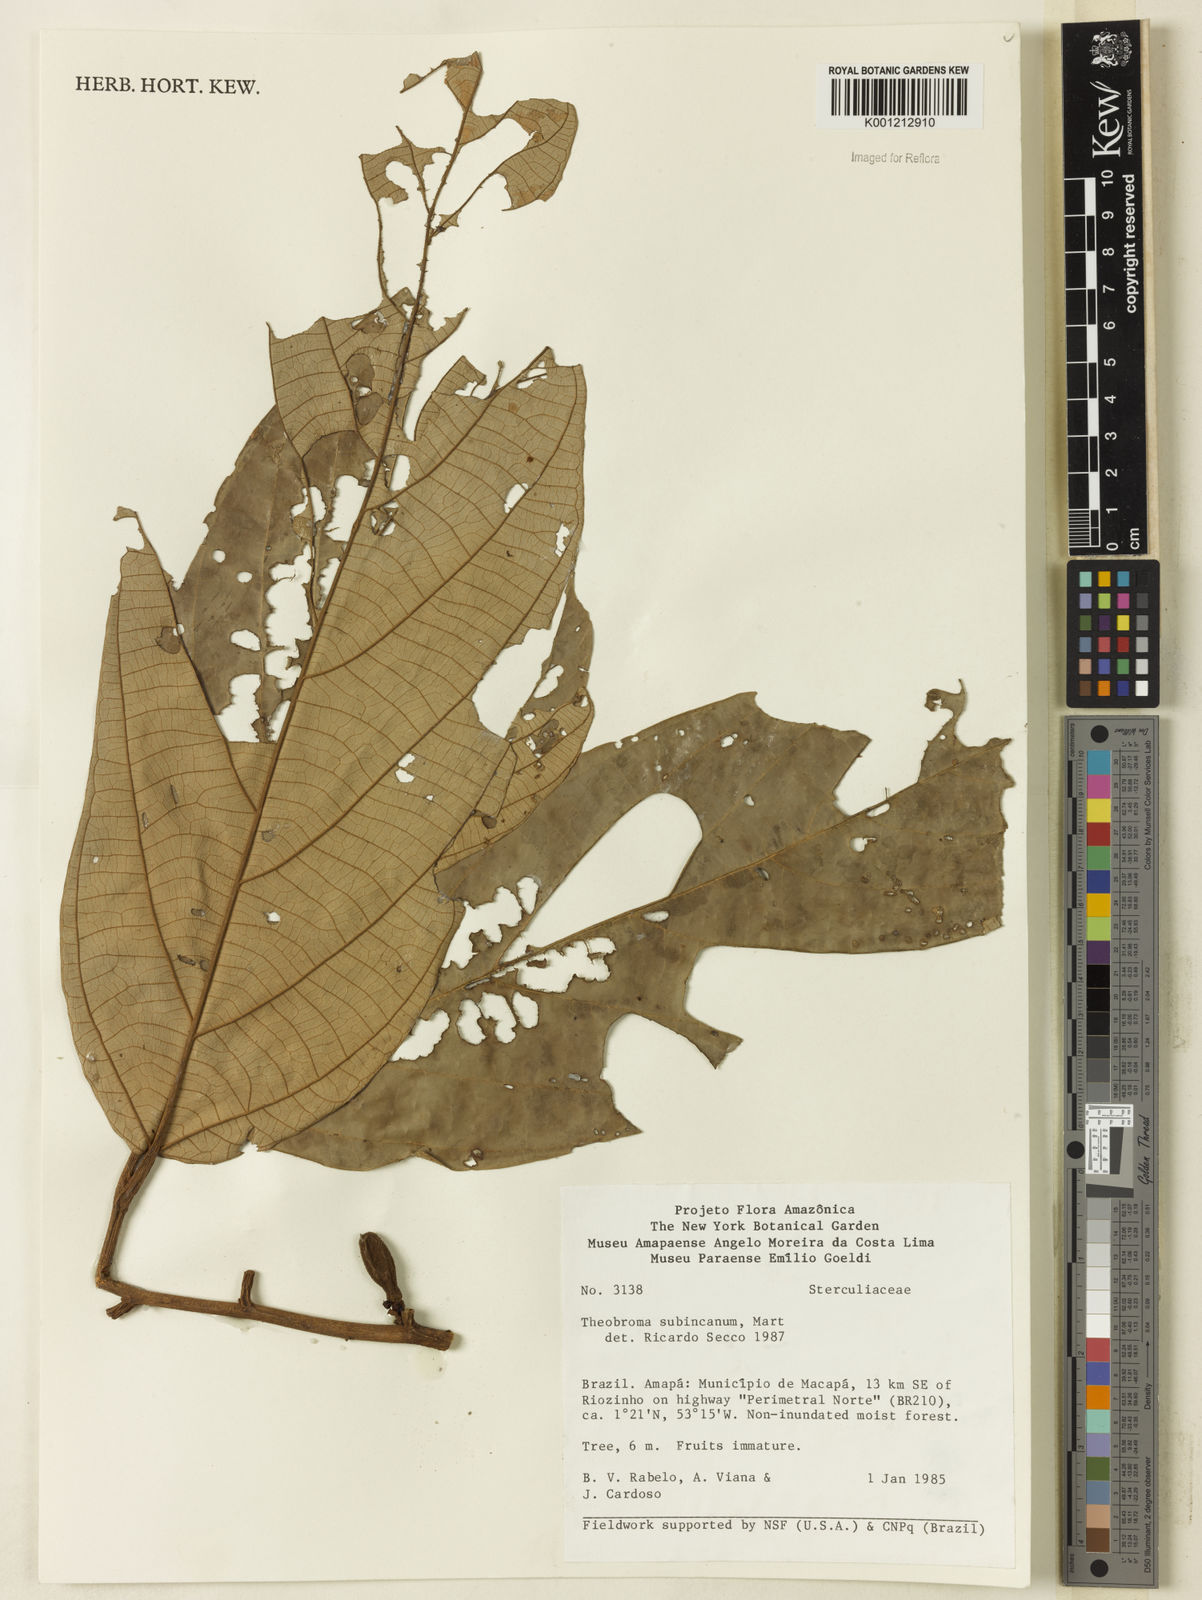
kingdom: Plantae
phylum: Tracheophyta
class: Magnoliopsida
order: Malvales
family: Malvaceae
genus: Theobroma
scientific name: Theobroma subincanum
